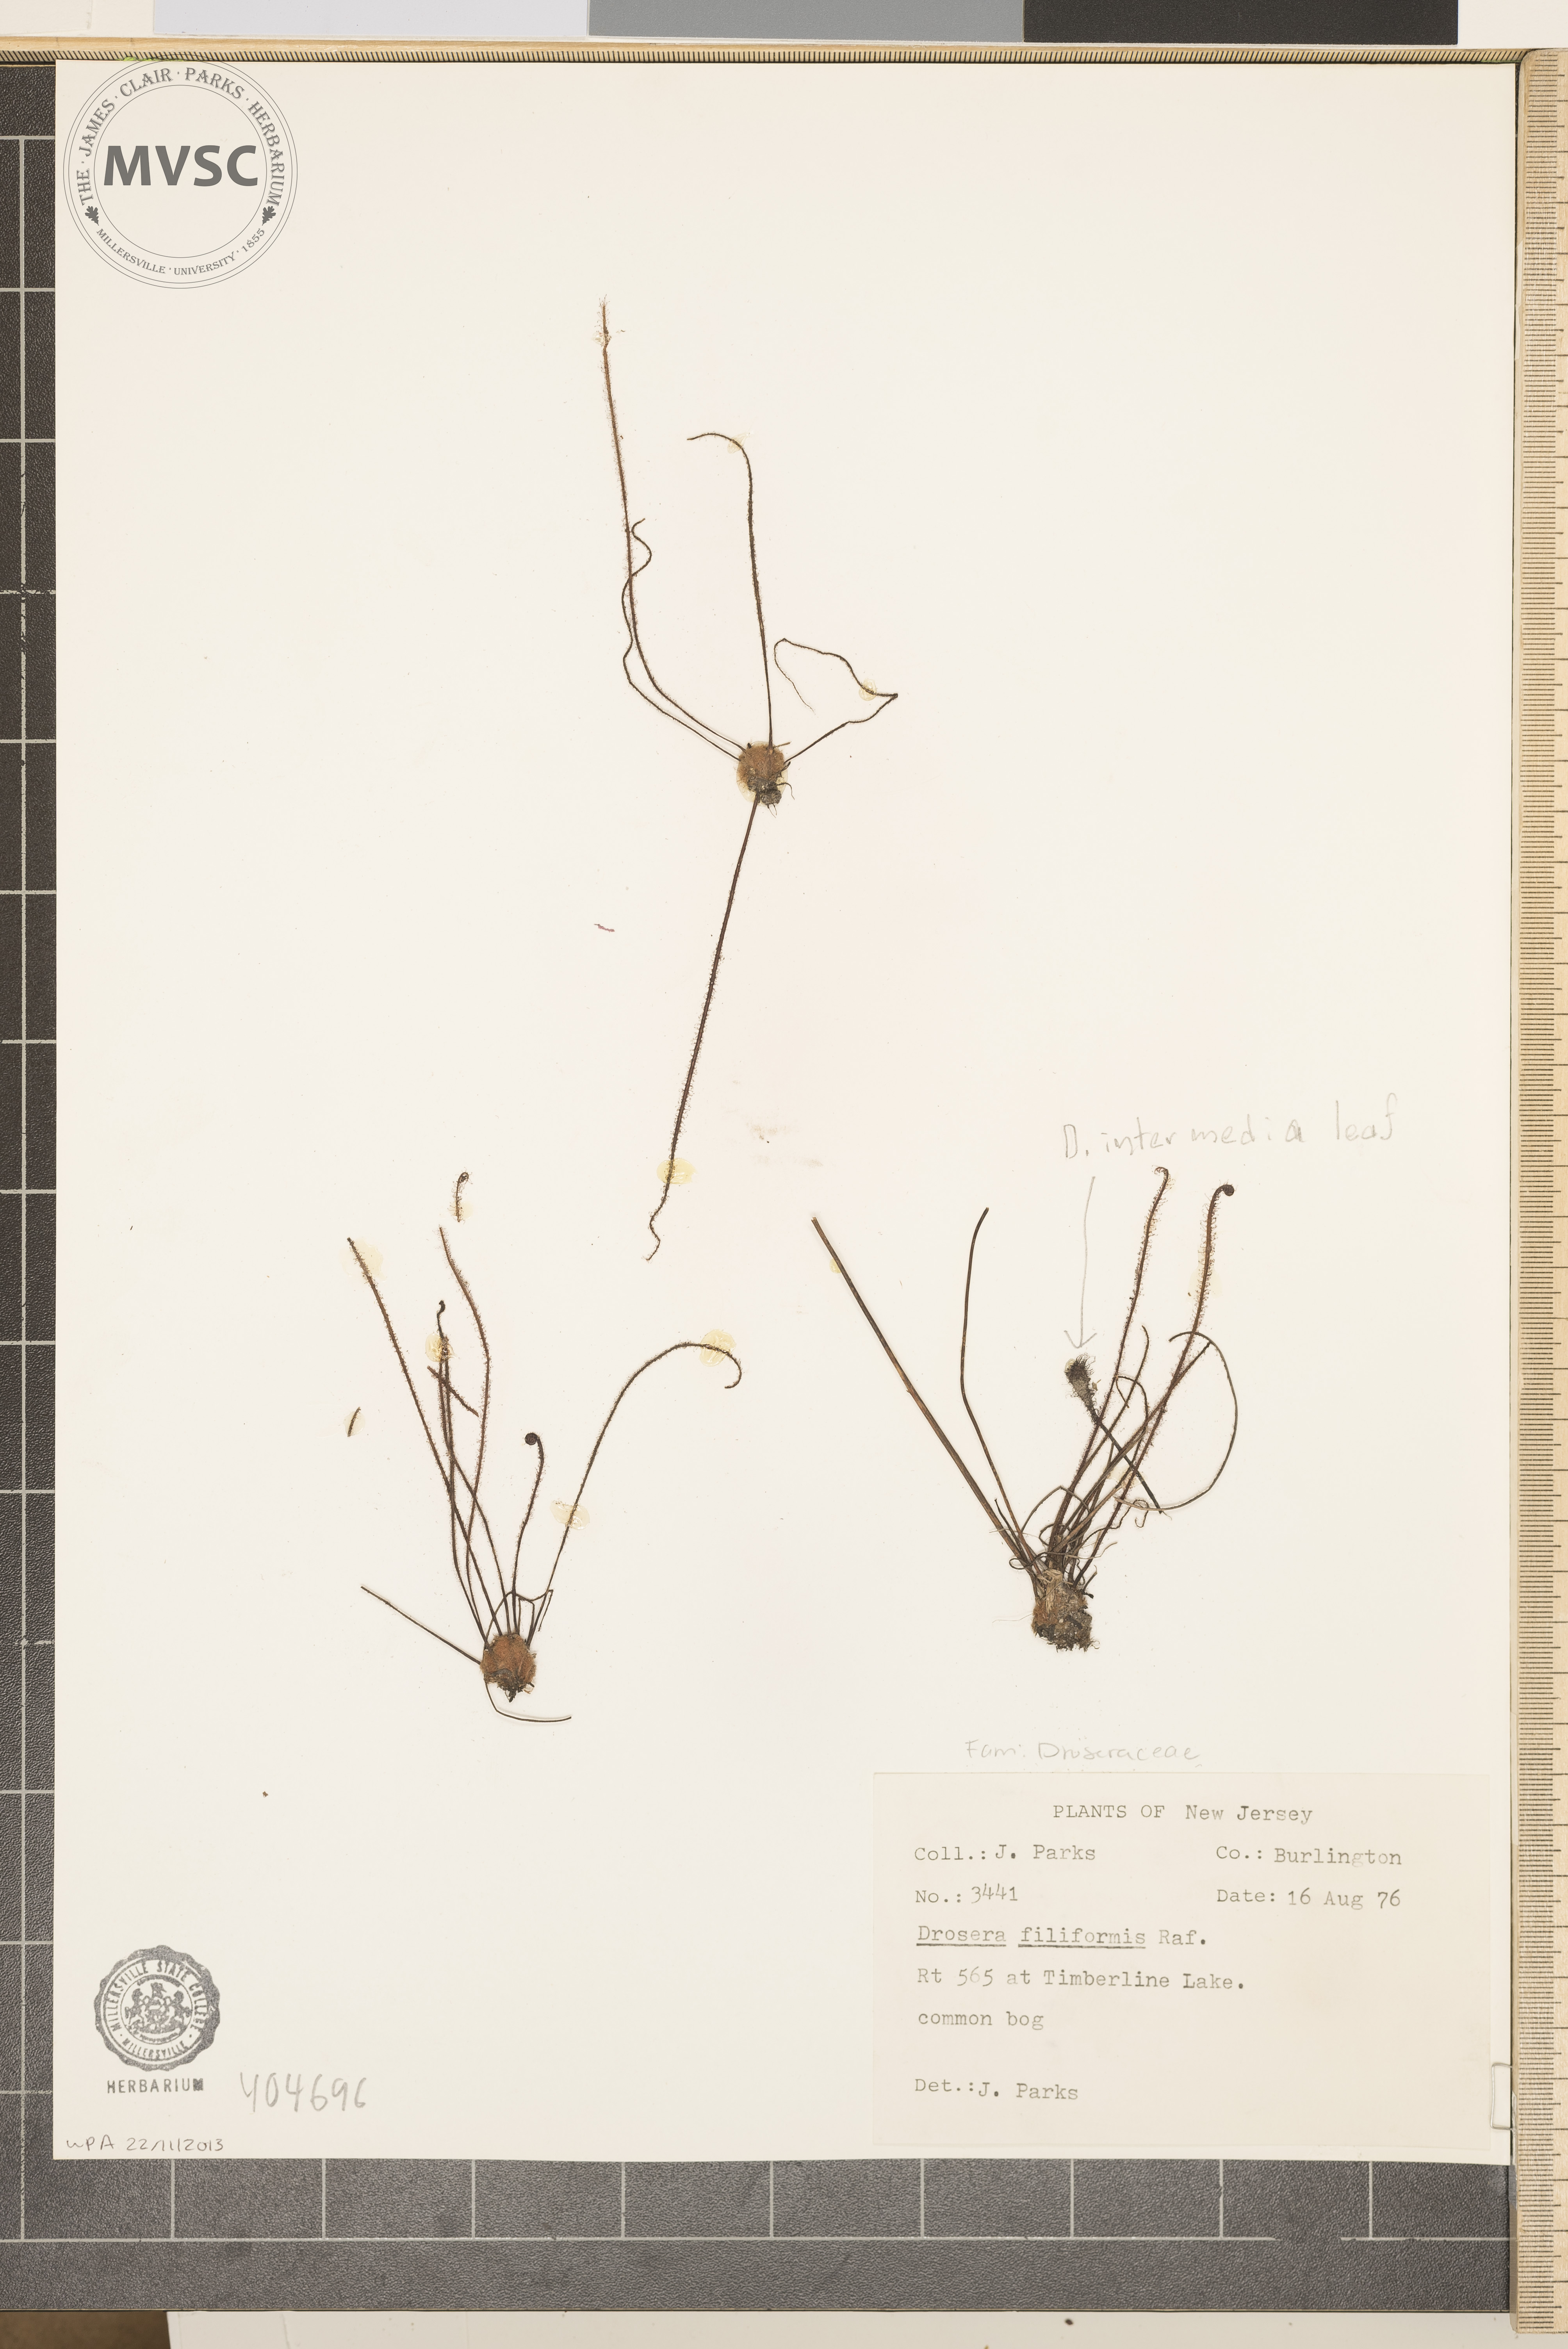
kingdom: Plantae
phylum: Tracheophyta
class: Magnoliopsida
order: Caryophyllales
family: Droseraceae
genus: Drosera
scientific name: Drosera filiformis
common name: sundew
